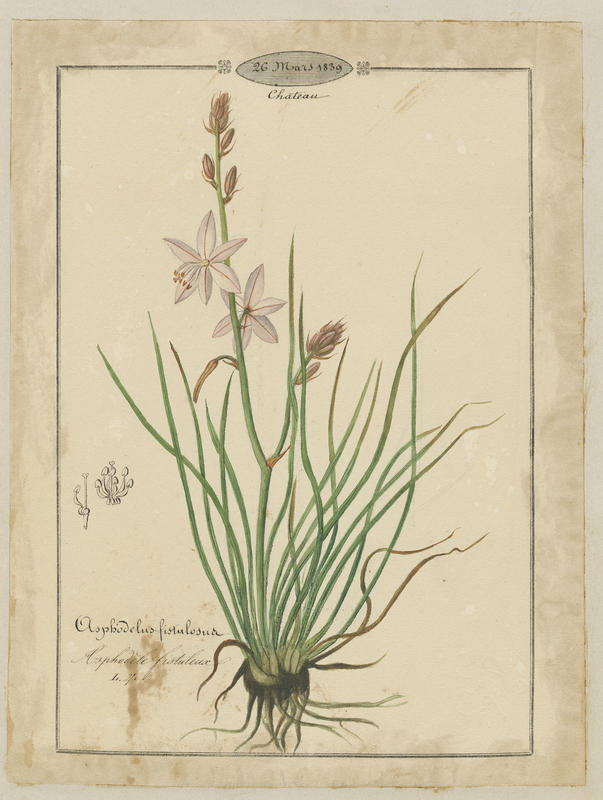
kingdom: Plantae
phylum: Tracheophyta
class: Liliopsida
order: Asparagales
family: Asphodelaceae
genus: Asphodelus
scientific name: Asphodelus fistulosus
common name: Onionweed
